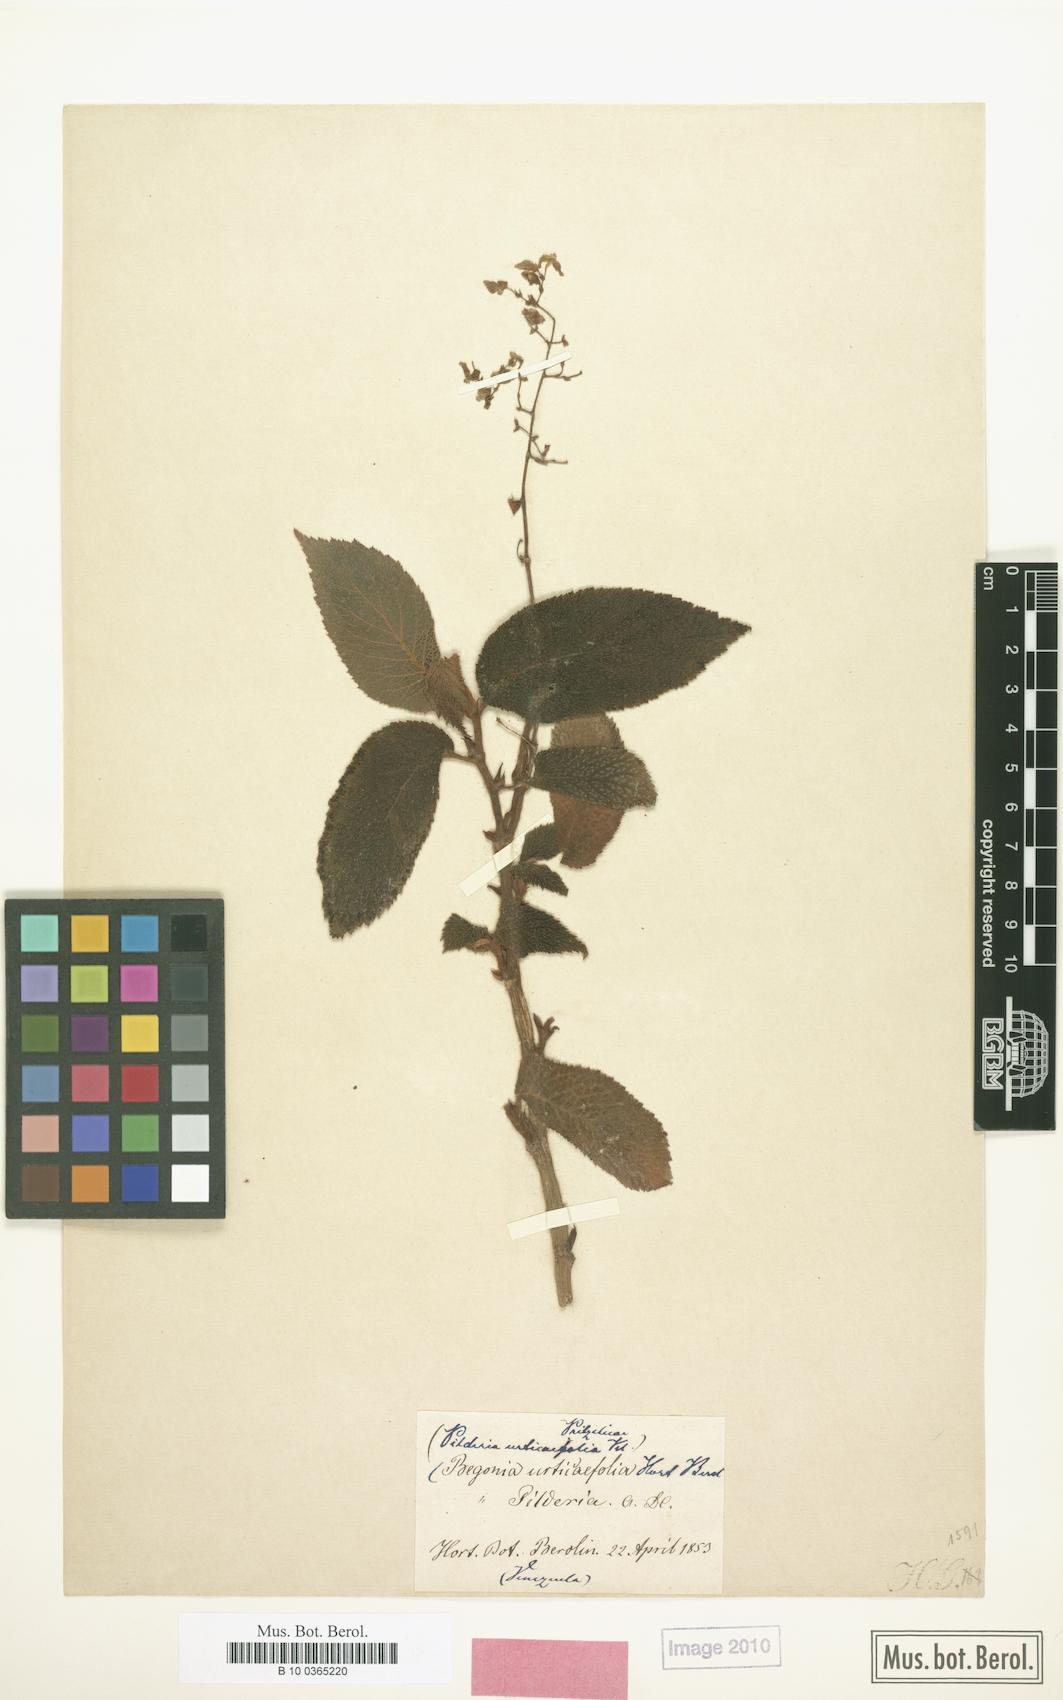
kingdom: Plantae
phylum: Tracheophyta
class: Magnoliopsida
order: Cucurbitales
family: Begoniaceae
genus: Begonia
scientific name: Begonia buddleiifolia
